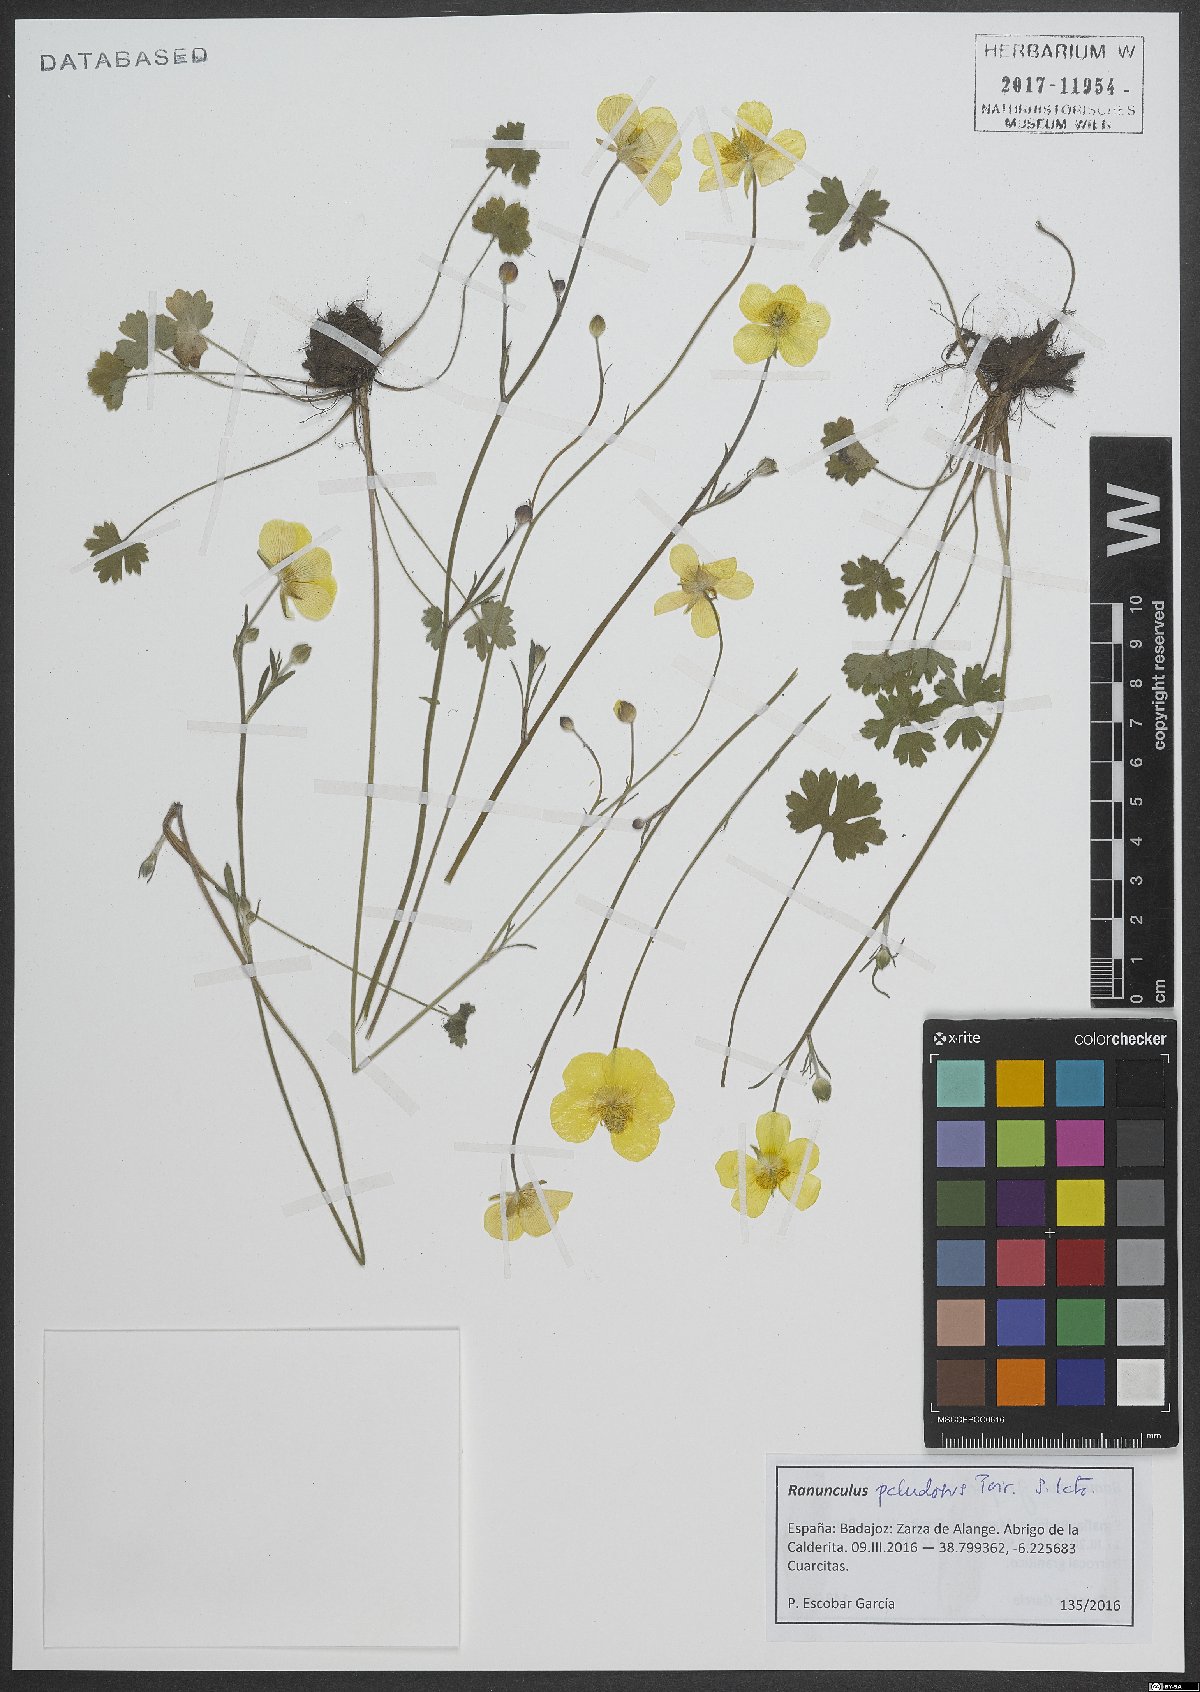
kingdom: Plantae
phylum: Tracheophyta
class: Magnoliopsida
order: Ranunculales
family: Ranunculaceae
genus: Ranunculus
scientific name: Ranunculus paludosus
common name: Jersey buttercup
